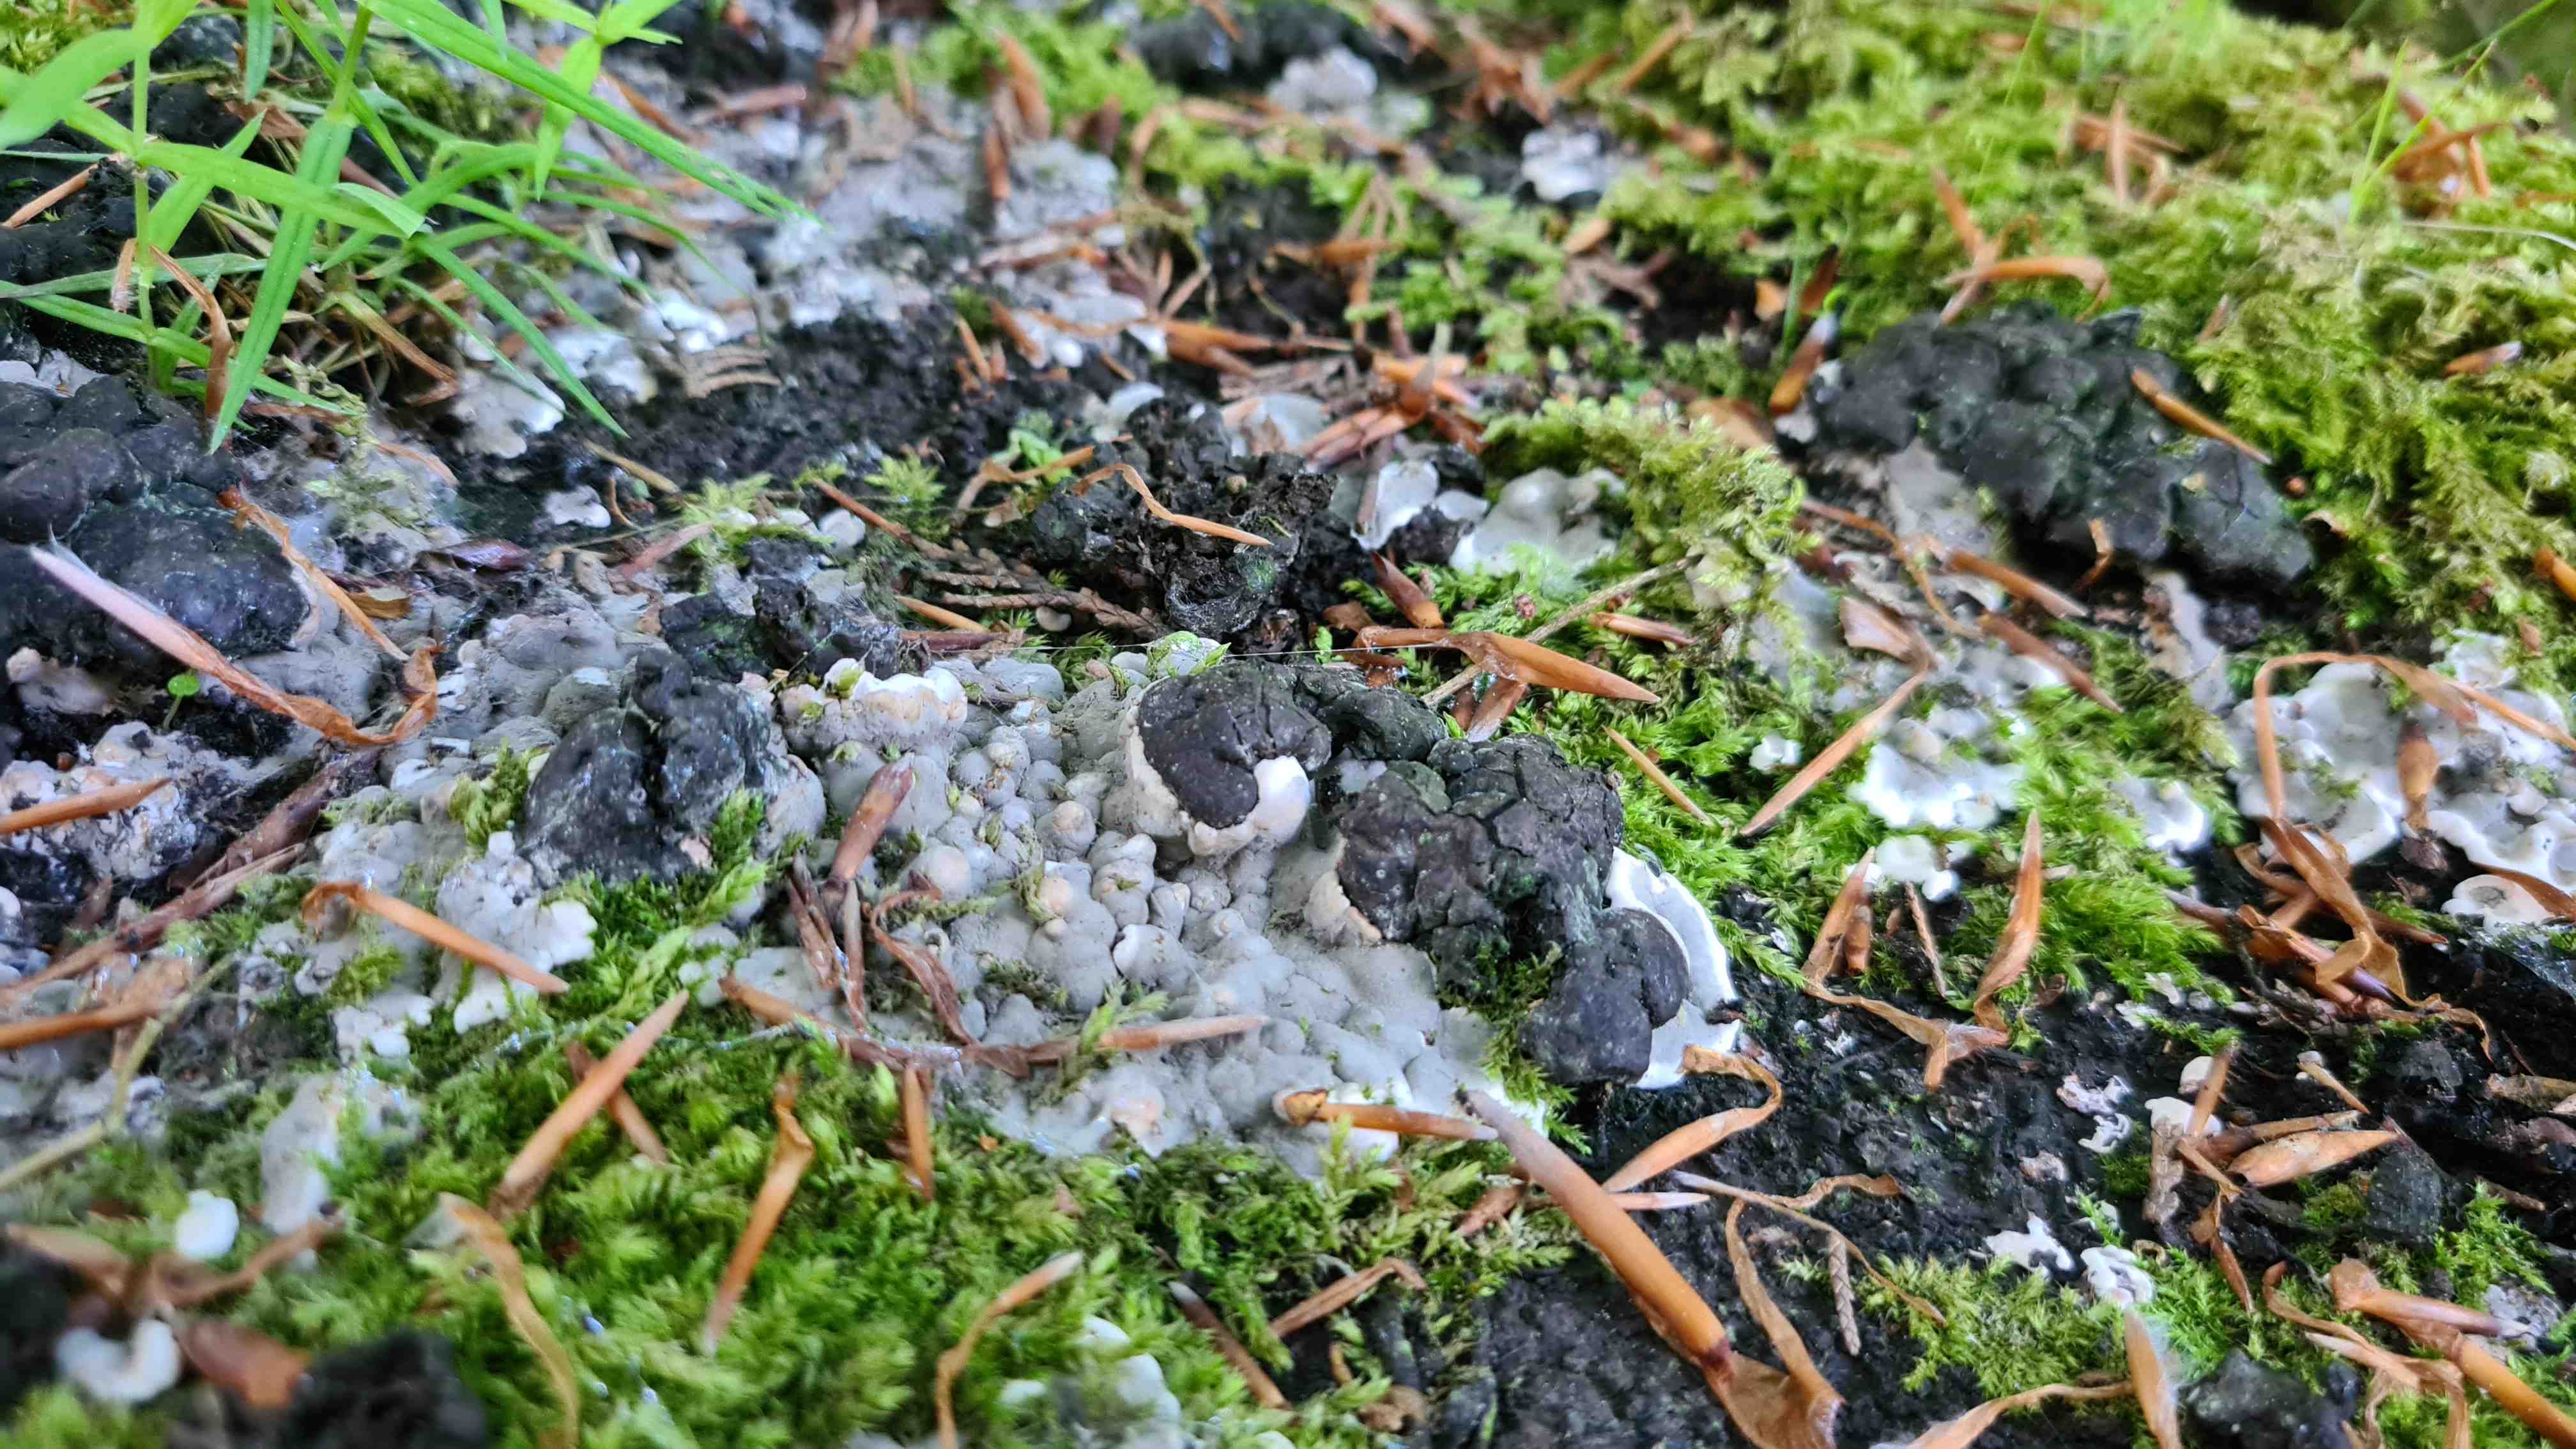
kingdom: Fungi
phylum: Ascomycota
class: Sordariomycetes
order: Xylariales
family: Xylariaceae
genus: Kretzschmaria
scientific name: Kretzschmaria deusta
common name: stor kulsvamp
